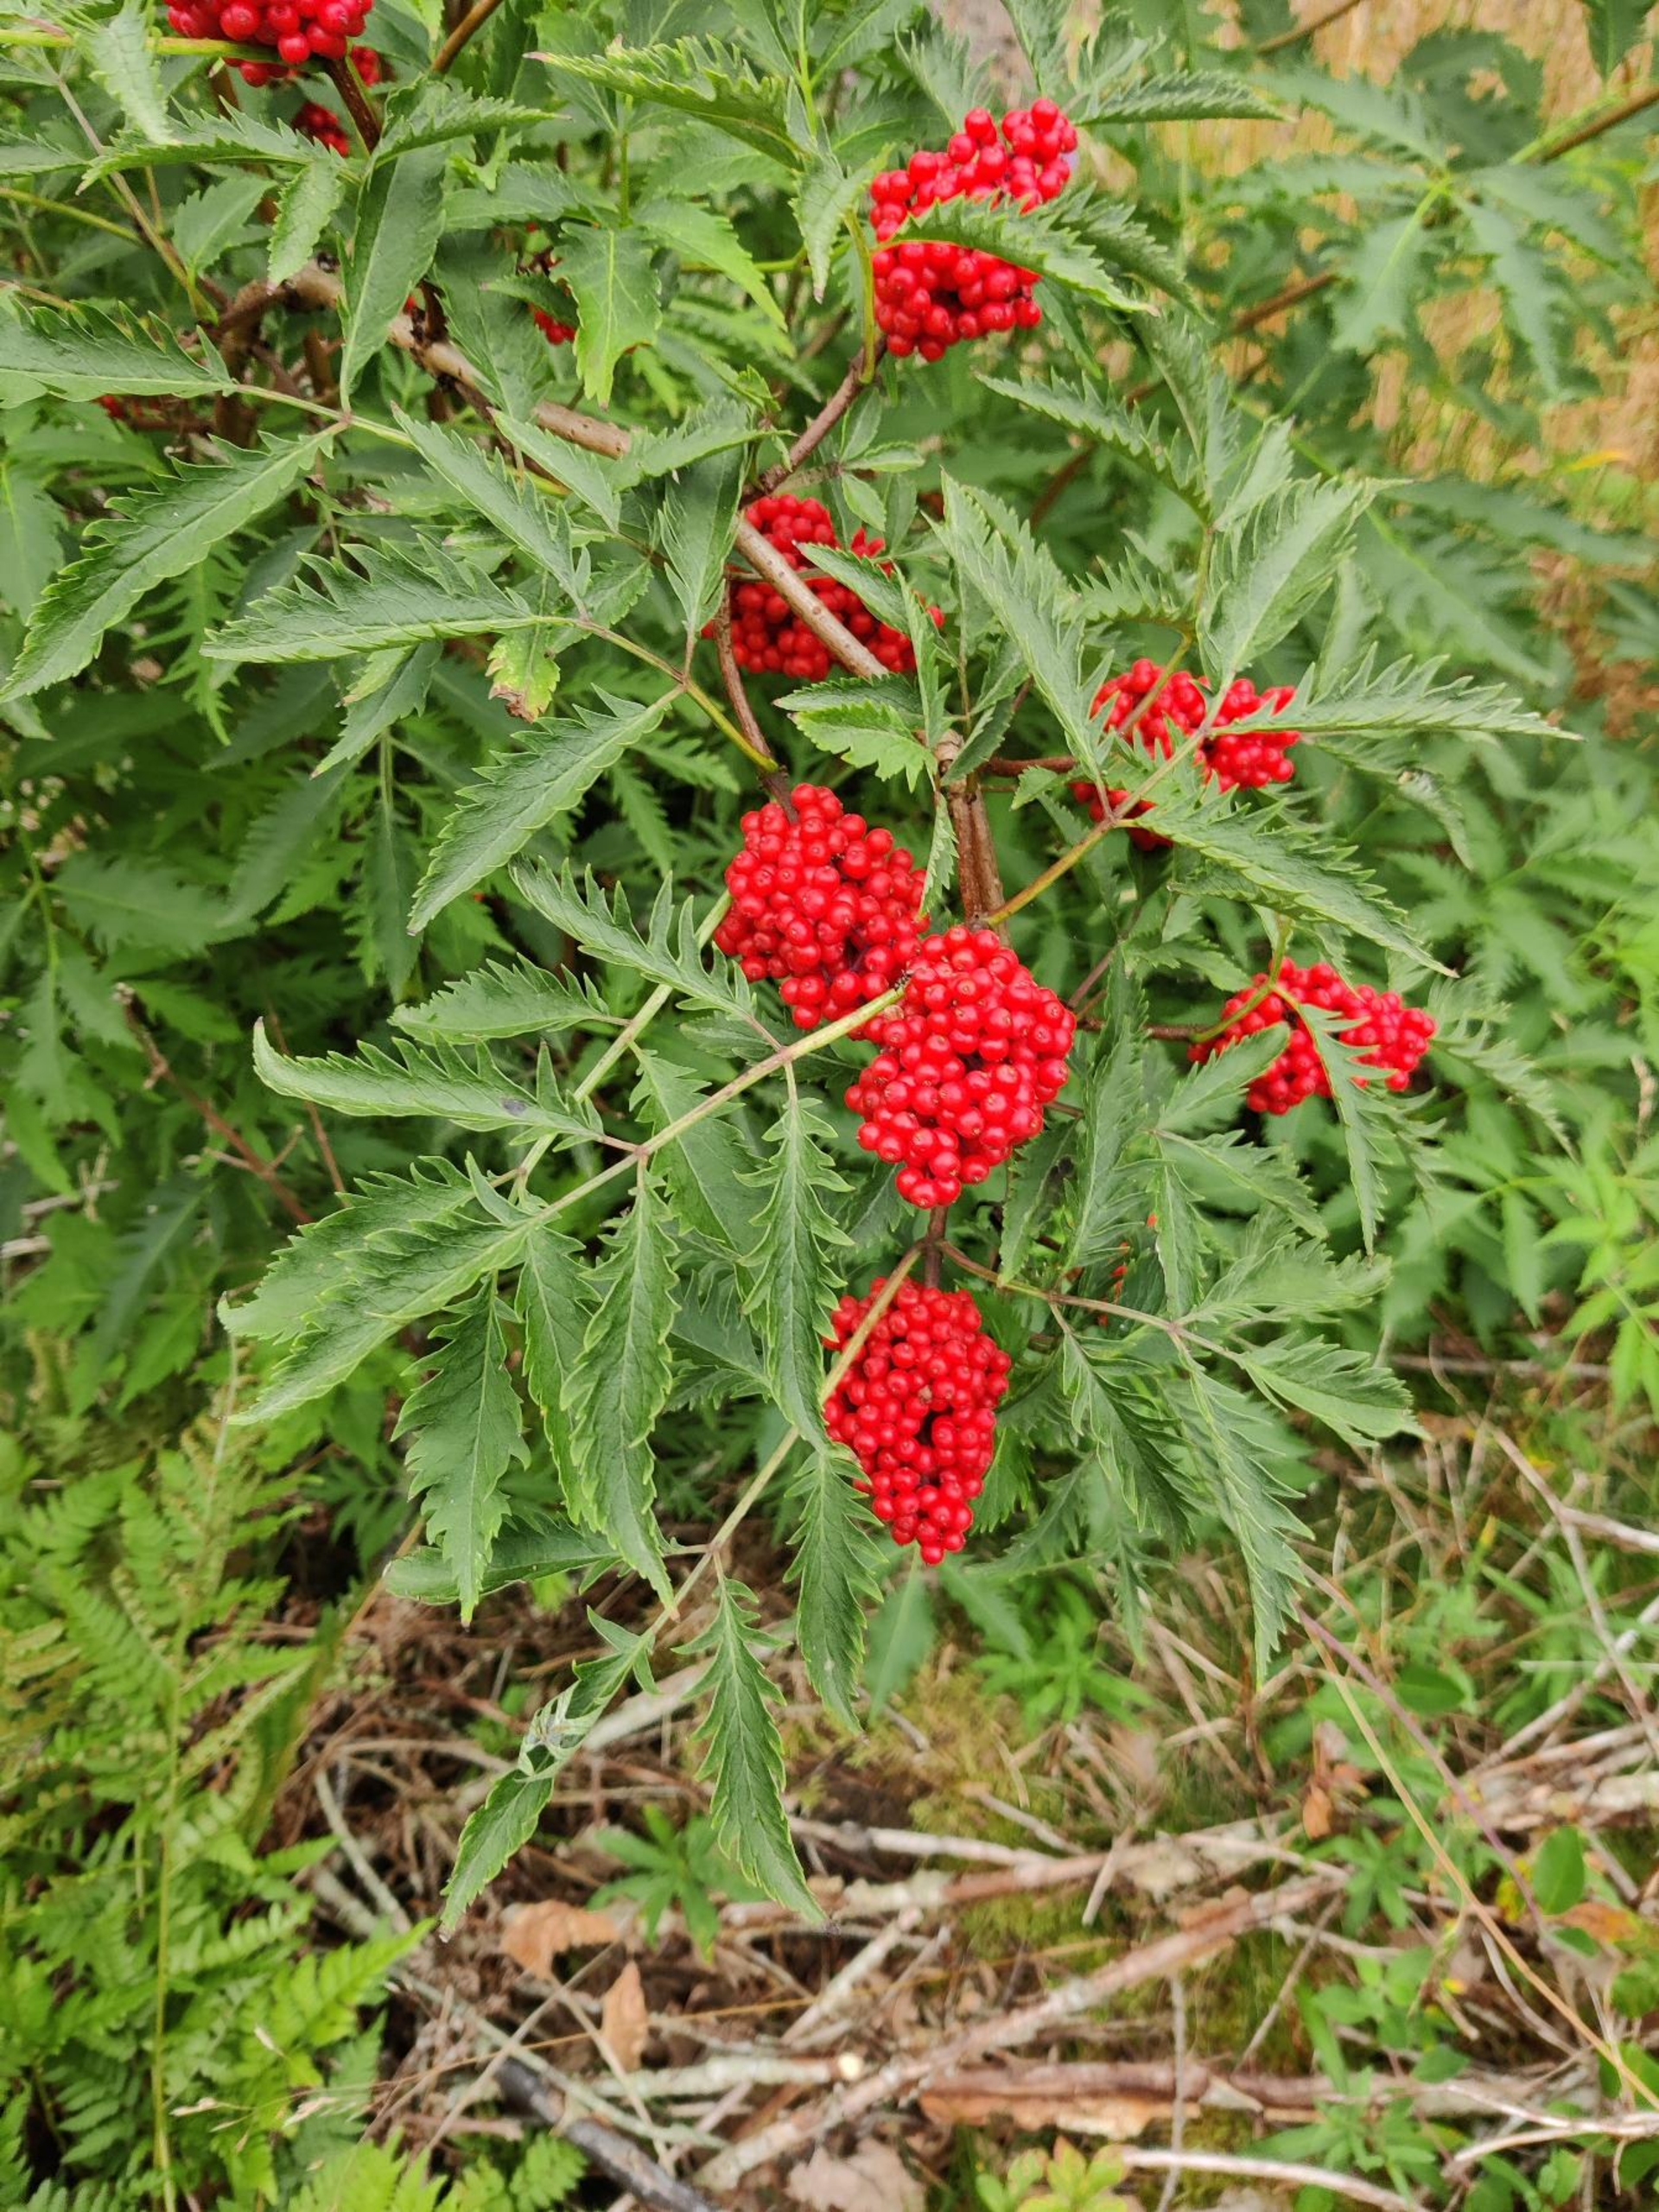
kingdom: Plantae
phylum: Tracheophyta
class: Magnoliopsida
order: Dipsacales
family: Viburnaceae
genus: Sambucus
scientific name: Sambucus racemosa
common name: Drue-hyld
